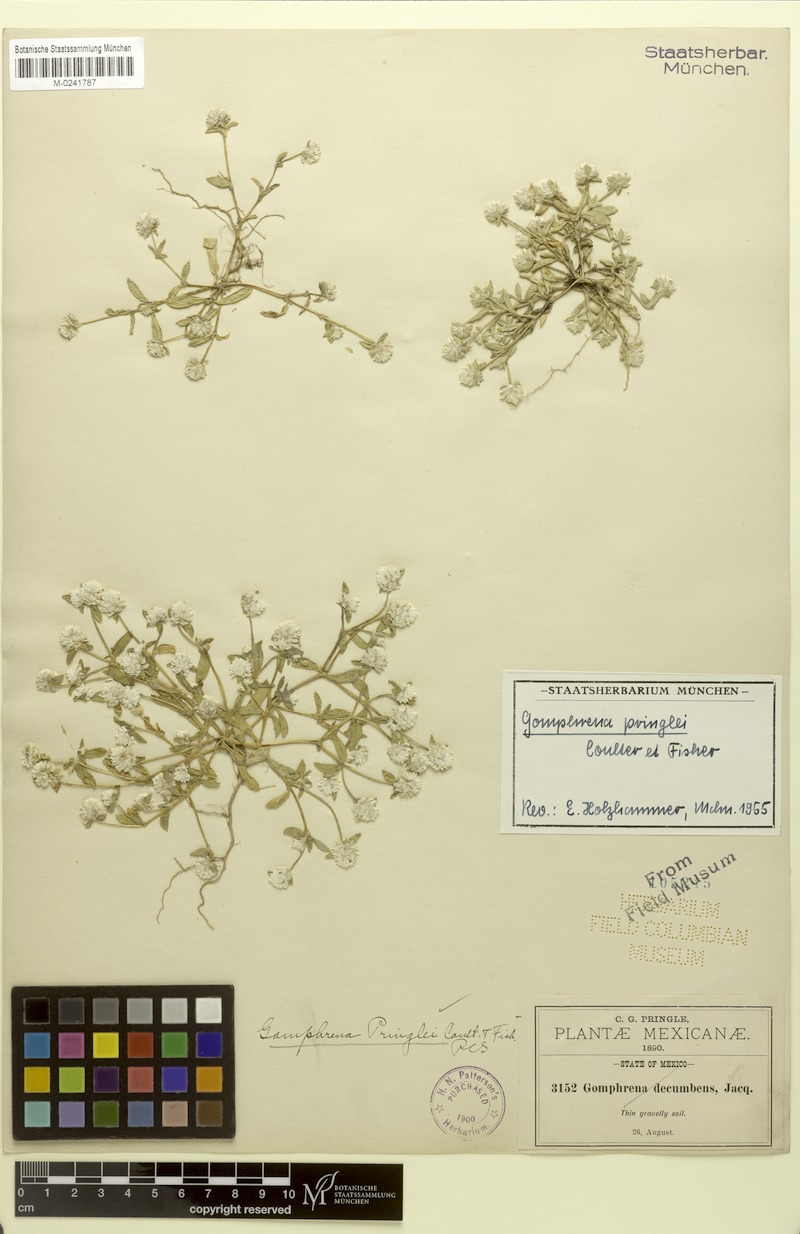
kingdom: Plantae
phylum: Tracheophyta
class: Magnoliopsida
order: Caryophyllales
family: Amaranthaceae
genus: Gomphrena
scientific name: Gomphrena pringlei
